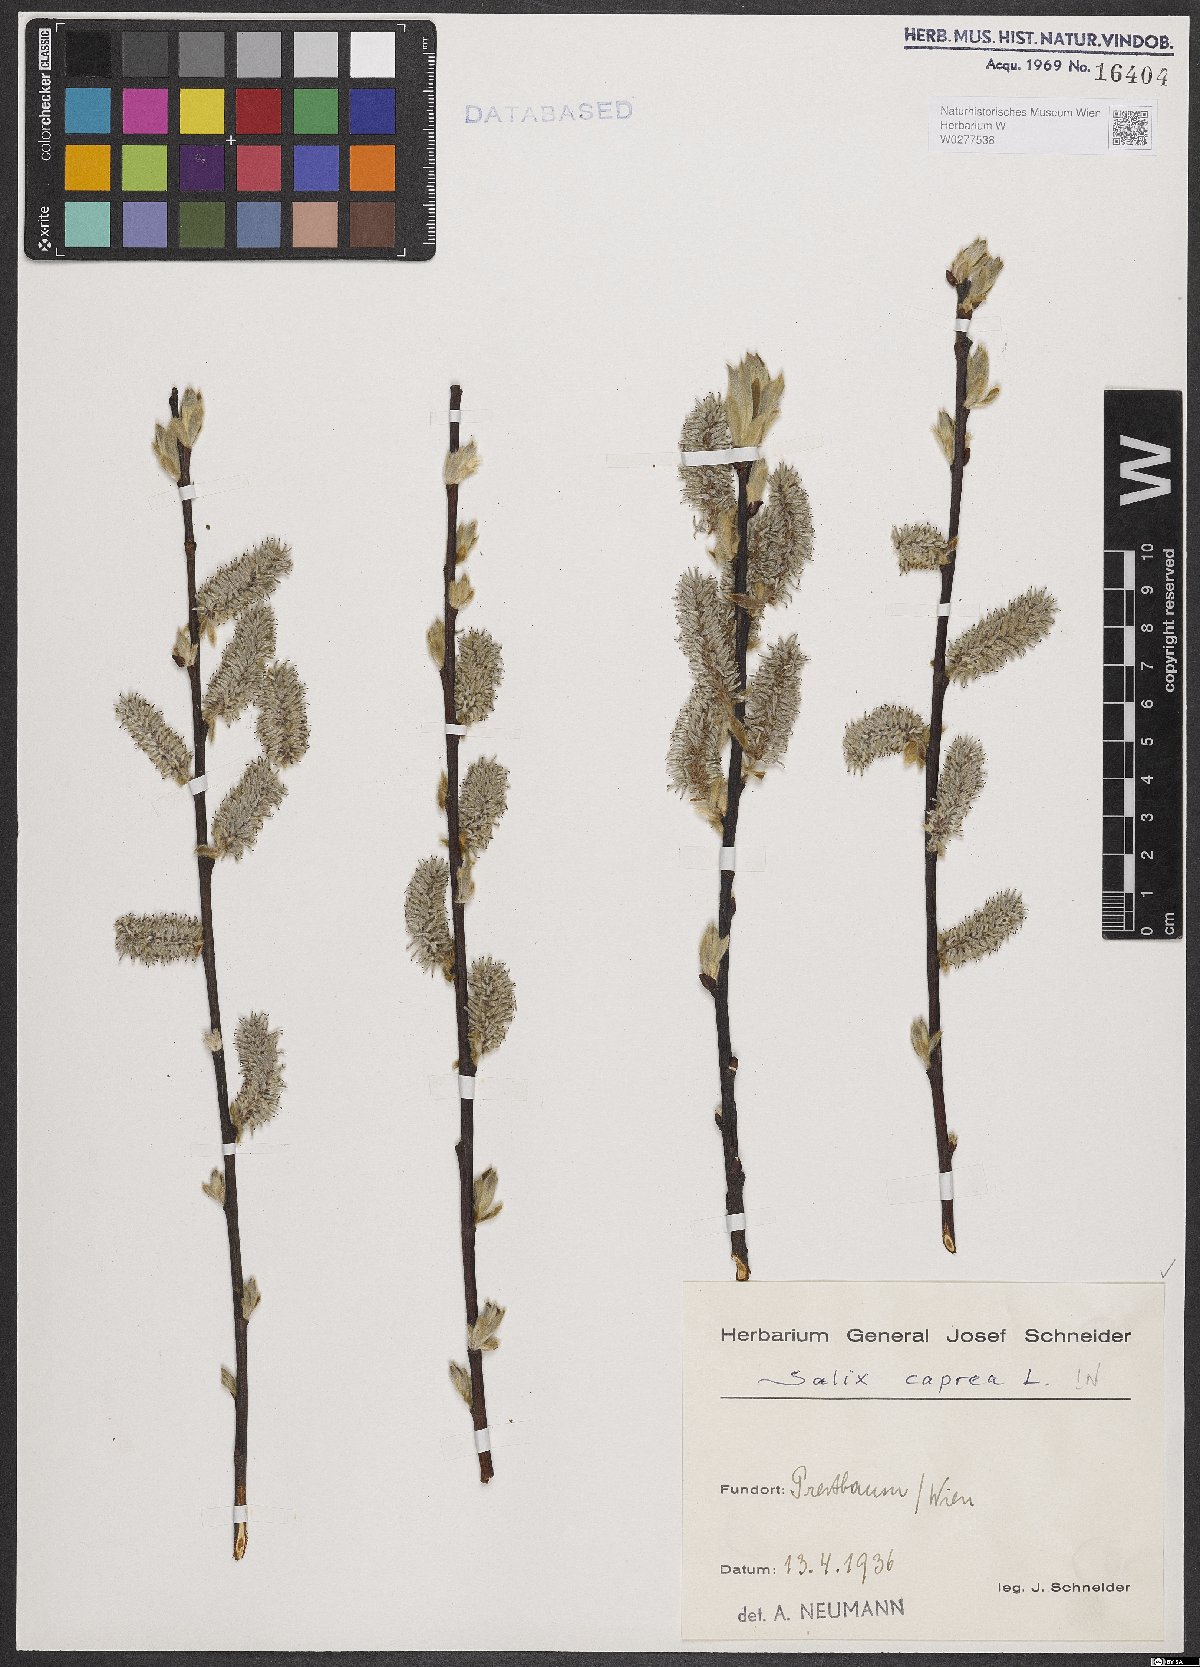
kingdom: Plantae
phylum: Tracheophyta
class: Magnoliopsida
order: Malpighiales
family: Salicaceae
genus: Salix
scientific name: Salix caprea
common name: Goat willow
